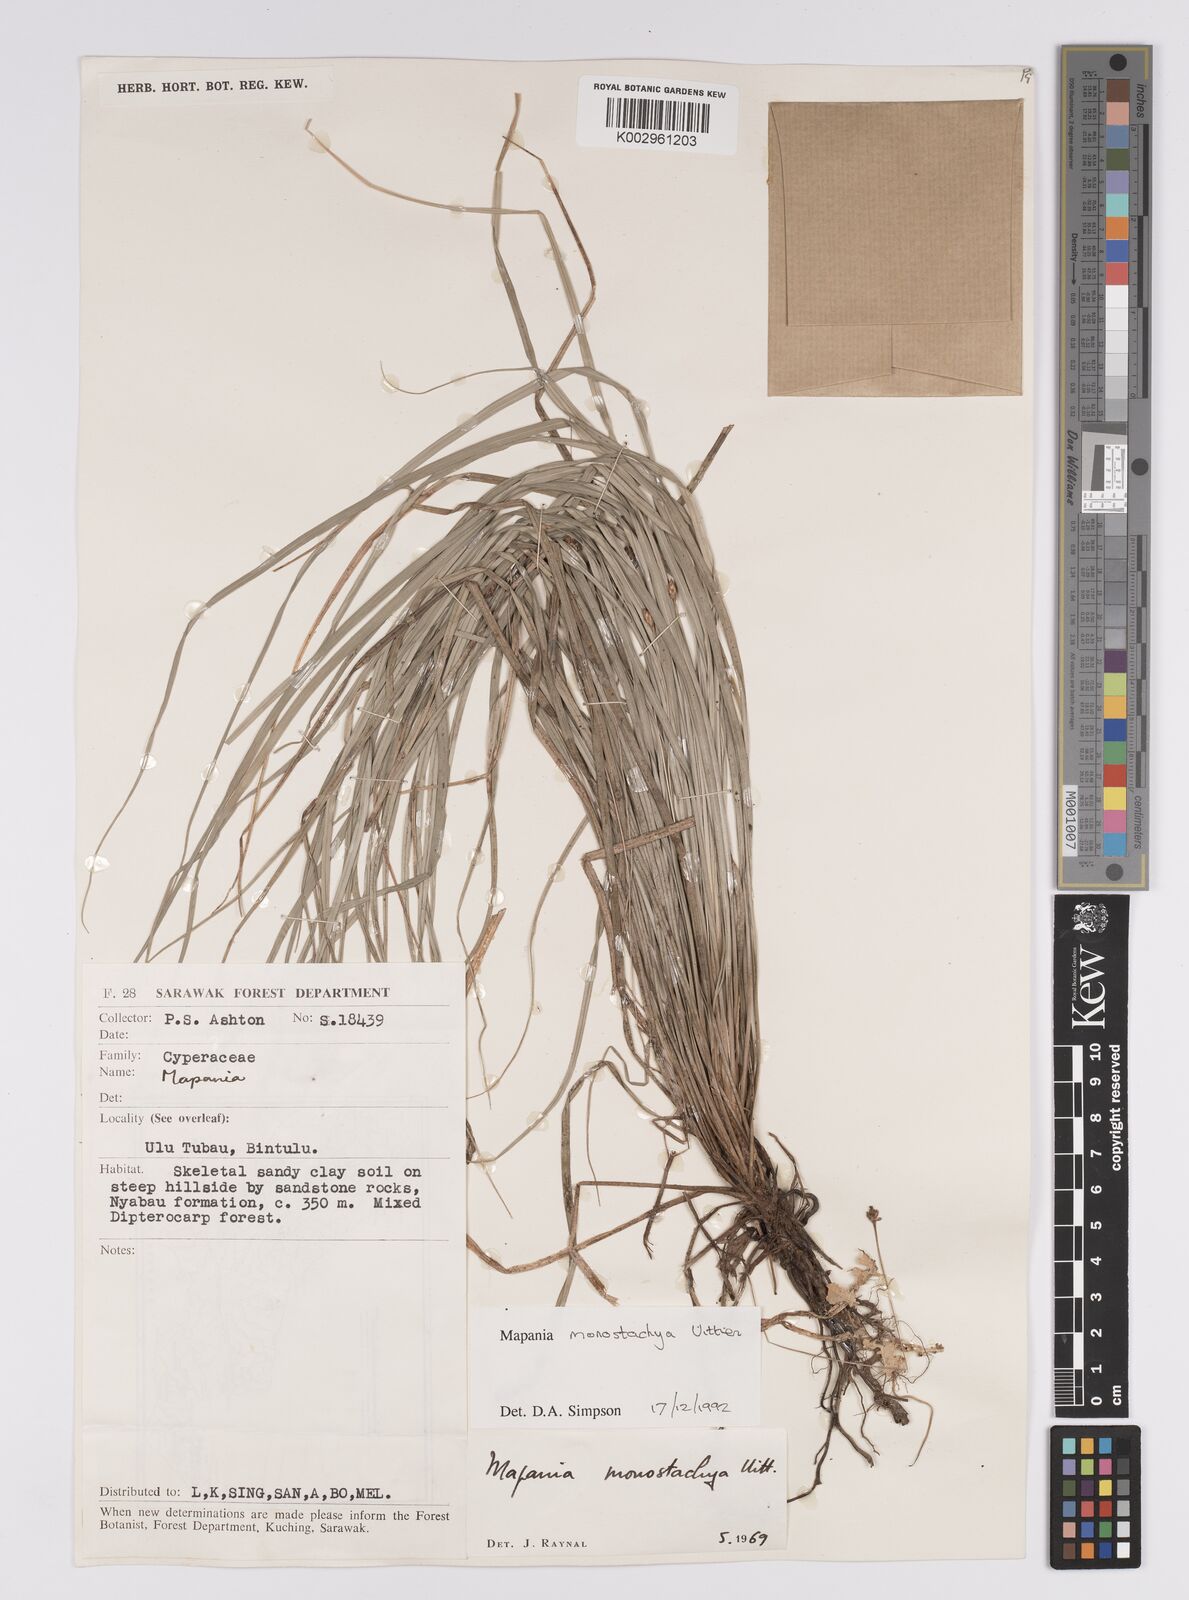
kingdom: Plantae
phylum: Tracheophyta
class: Liliopsida
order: Poales
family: Cyperaceae
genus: Mapania
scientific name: Mapania monostachya
